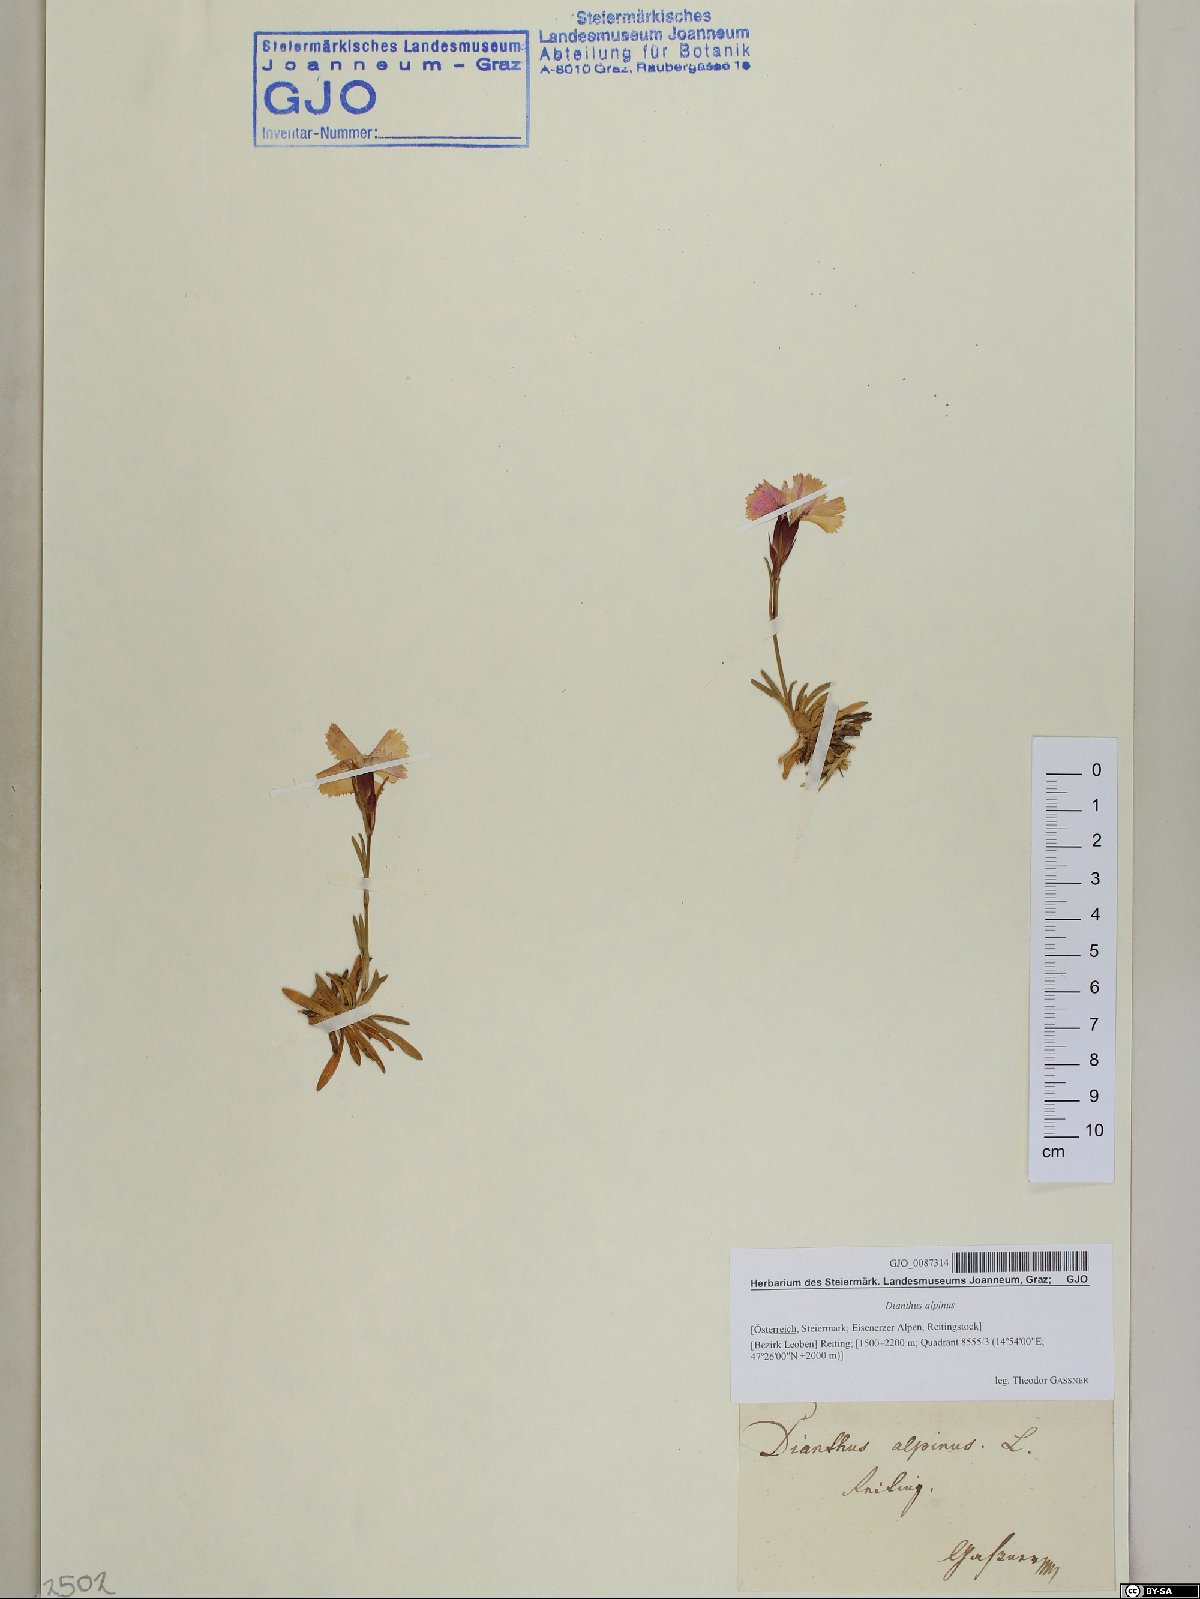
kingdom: Plantae
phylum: Tracheophyta
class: Magnoliopsida
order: Caryophyllales
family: Caryophyllaceae
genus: Dianthus
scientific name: Dianthus alpinus
